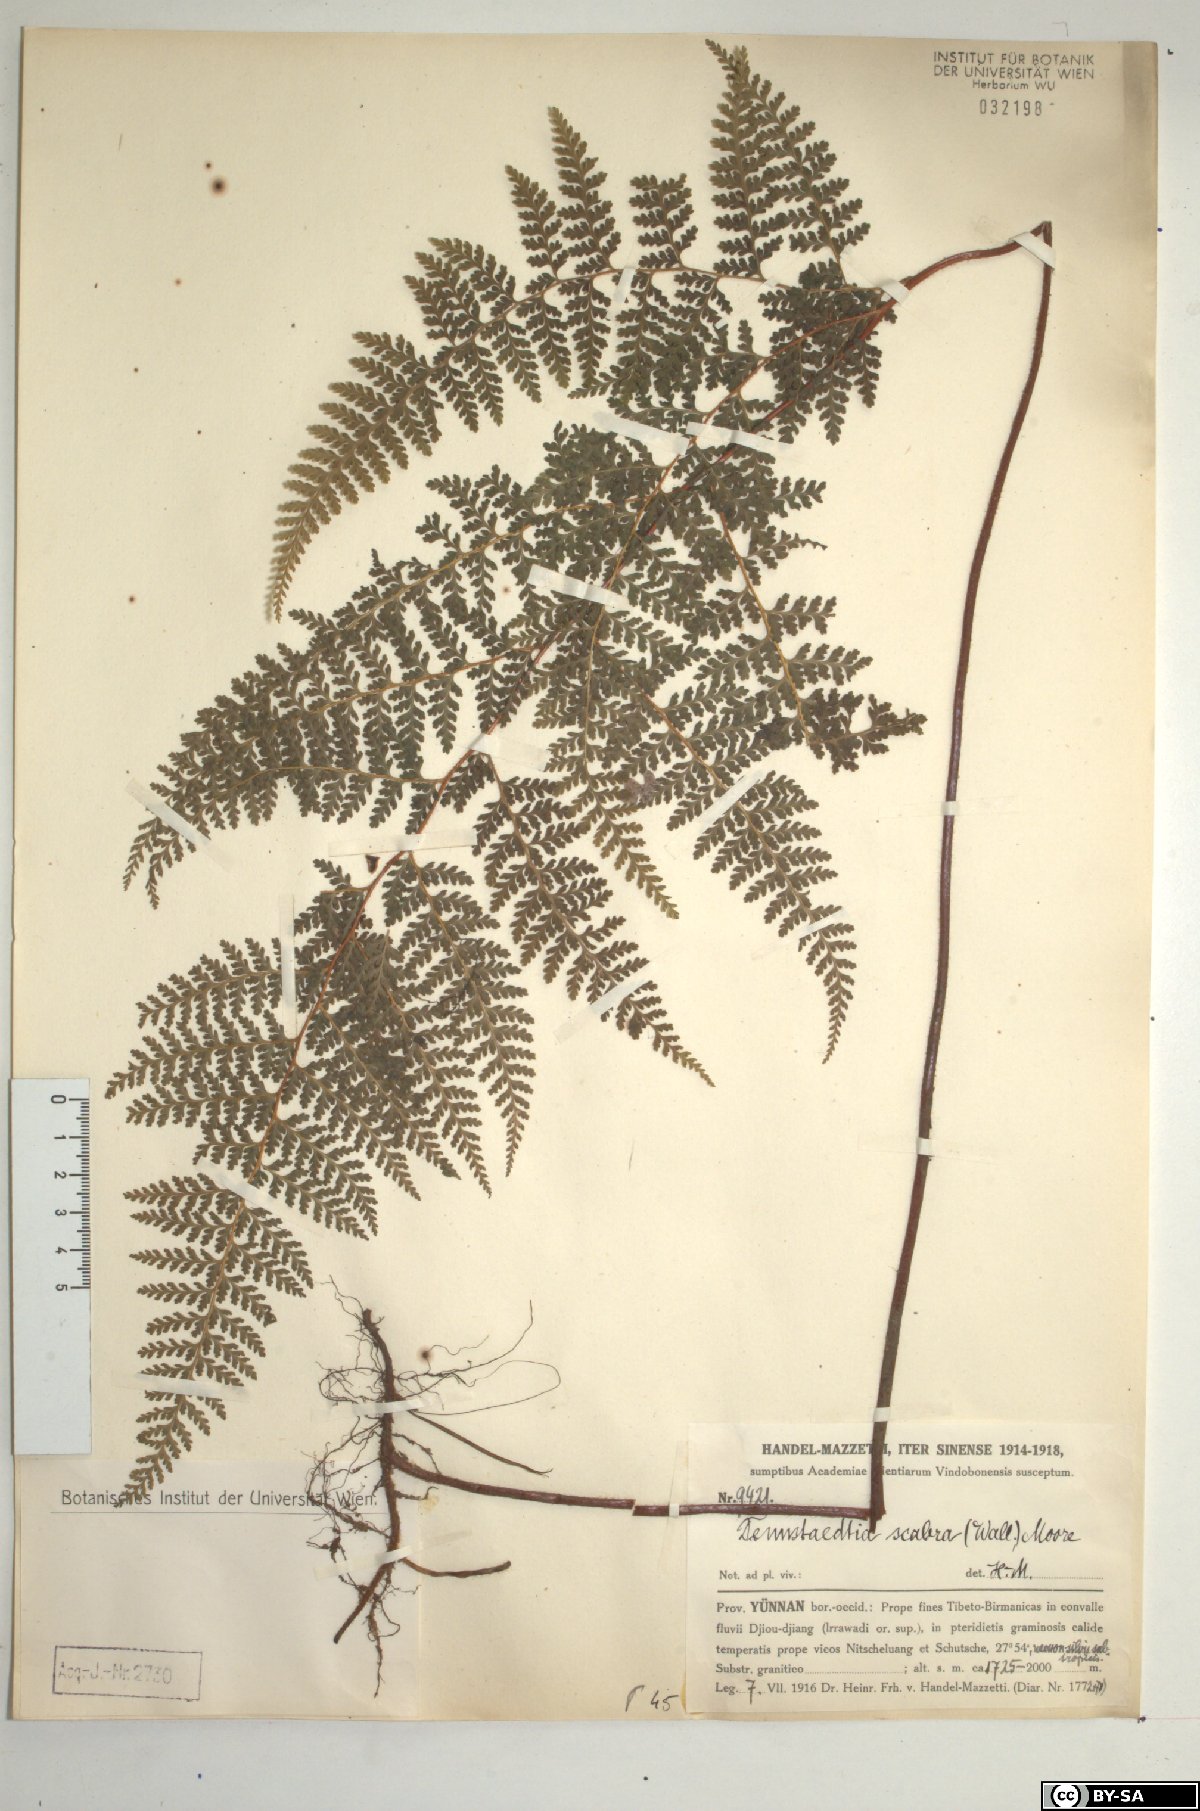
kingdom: Plantae
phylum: Tracheophyta
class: Polypodiopsida
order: Polypodiales
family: Dennstaedtiaceae
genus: Sitobolium
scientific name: Sitobolium zeylanicum
